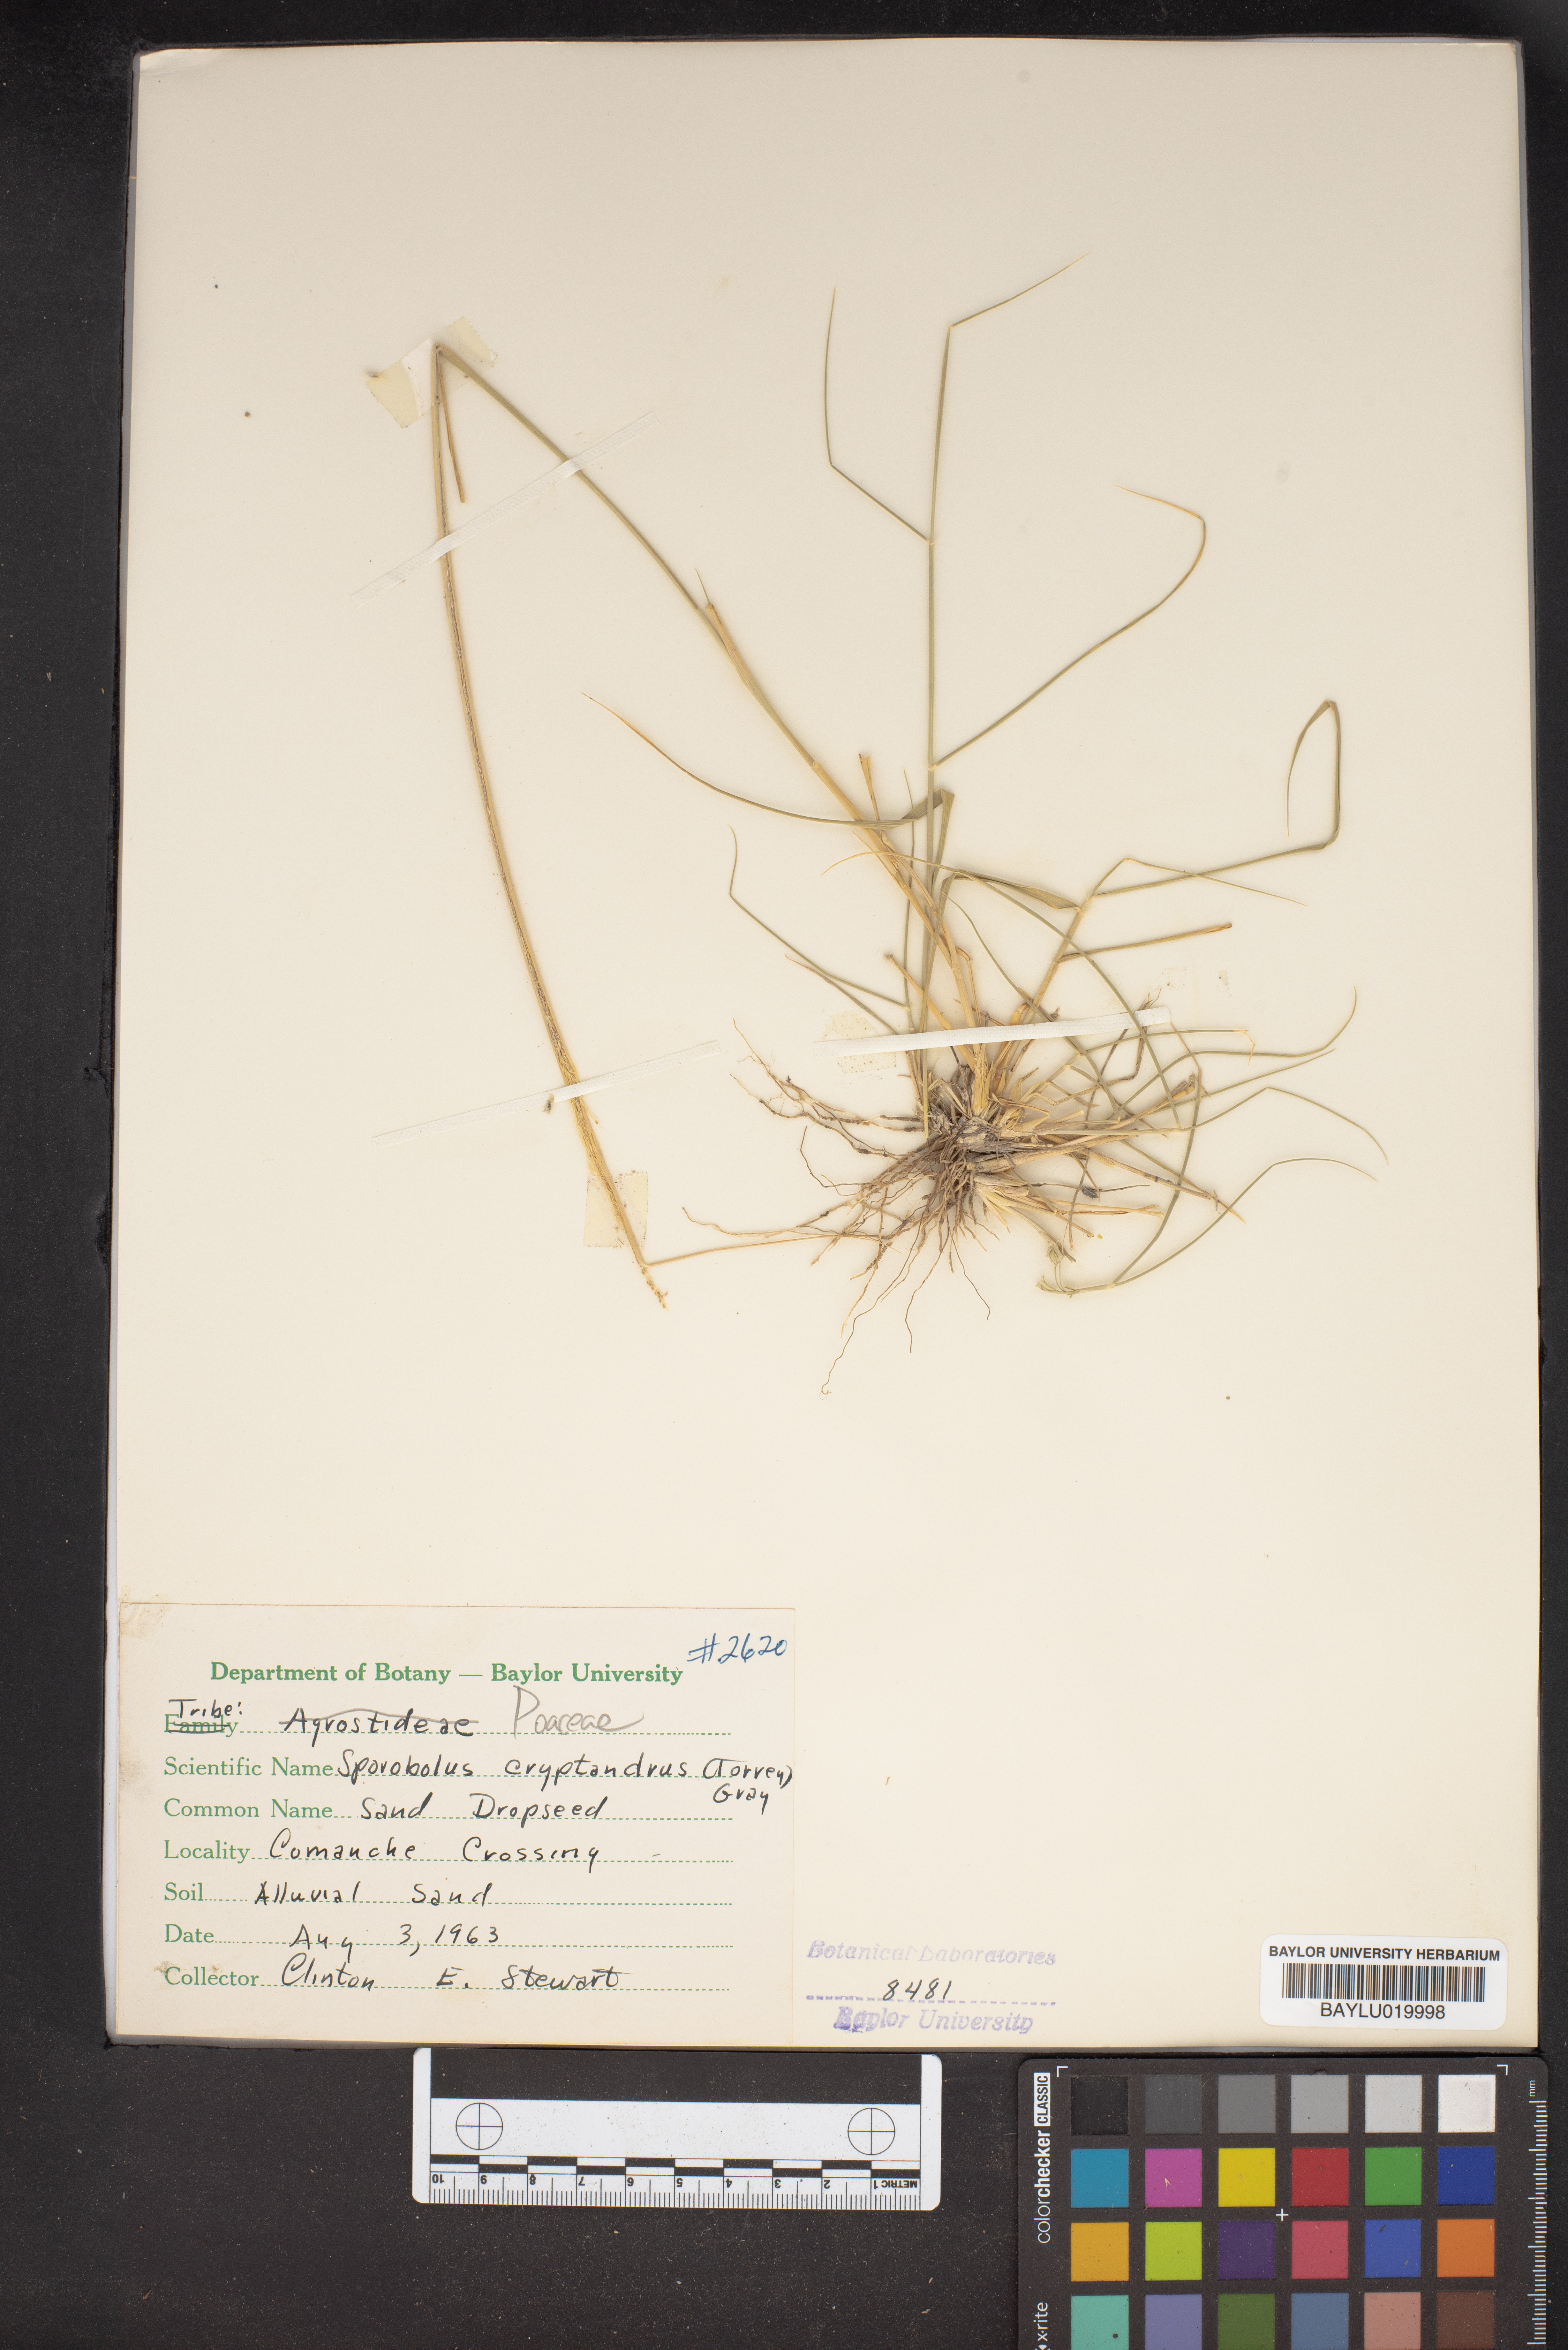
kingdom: Plantae
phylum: Tracheophyta
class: Liliopsida
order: Poales
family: Poaceae
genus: Sporobolus
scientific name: Sporobolus cryptandrus
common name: Sand dropseed
